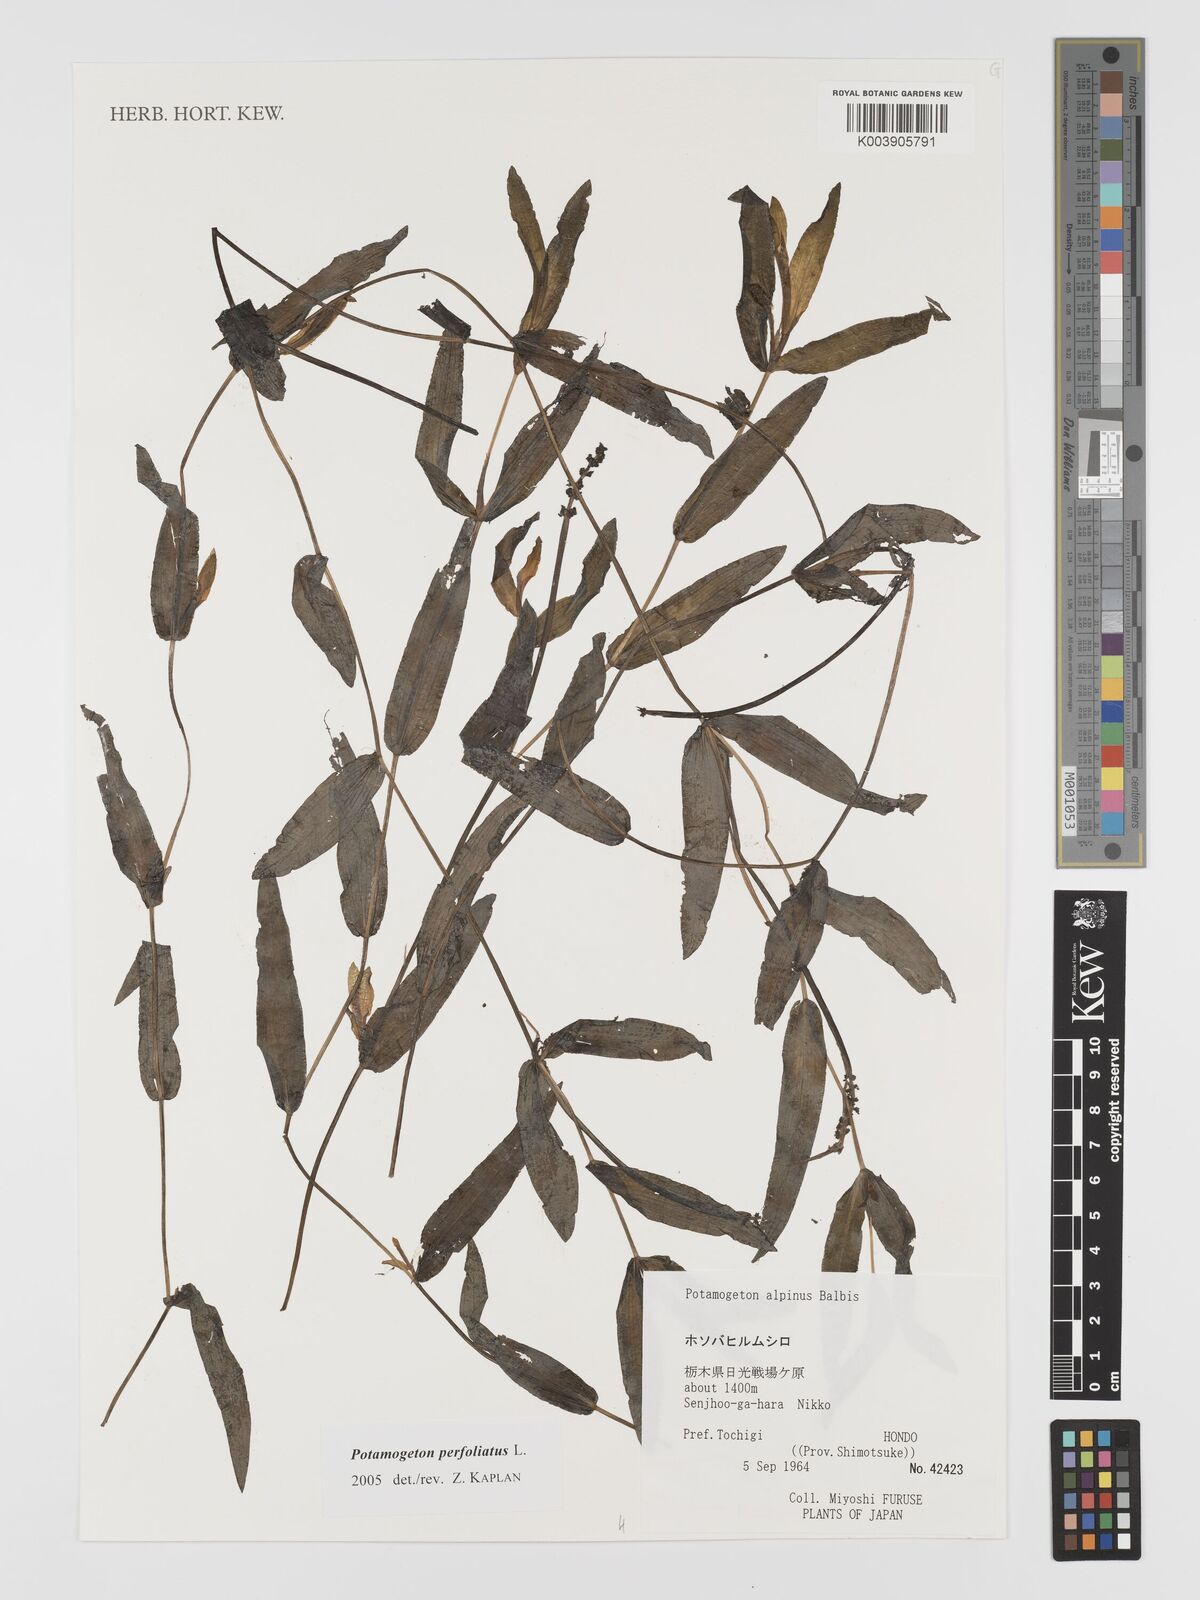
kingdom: Plantae
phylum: Tracheophyta
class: Liliopsida
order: Alismatales
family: Potamogetonaceae
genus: Potamogeton
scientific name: Potamogeton perfoliatus
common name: Perfoliate pondweed
